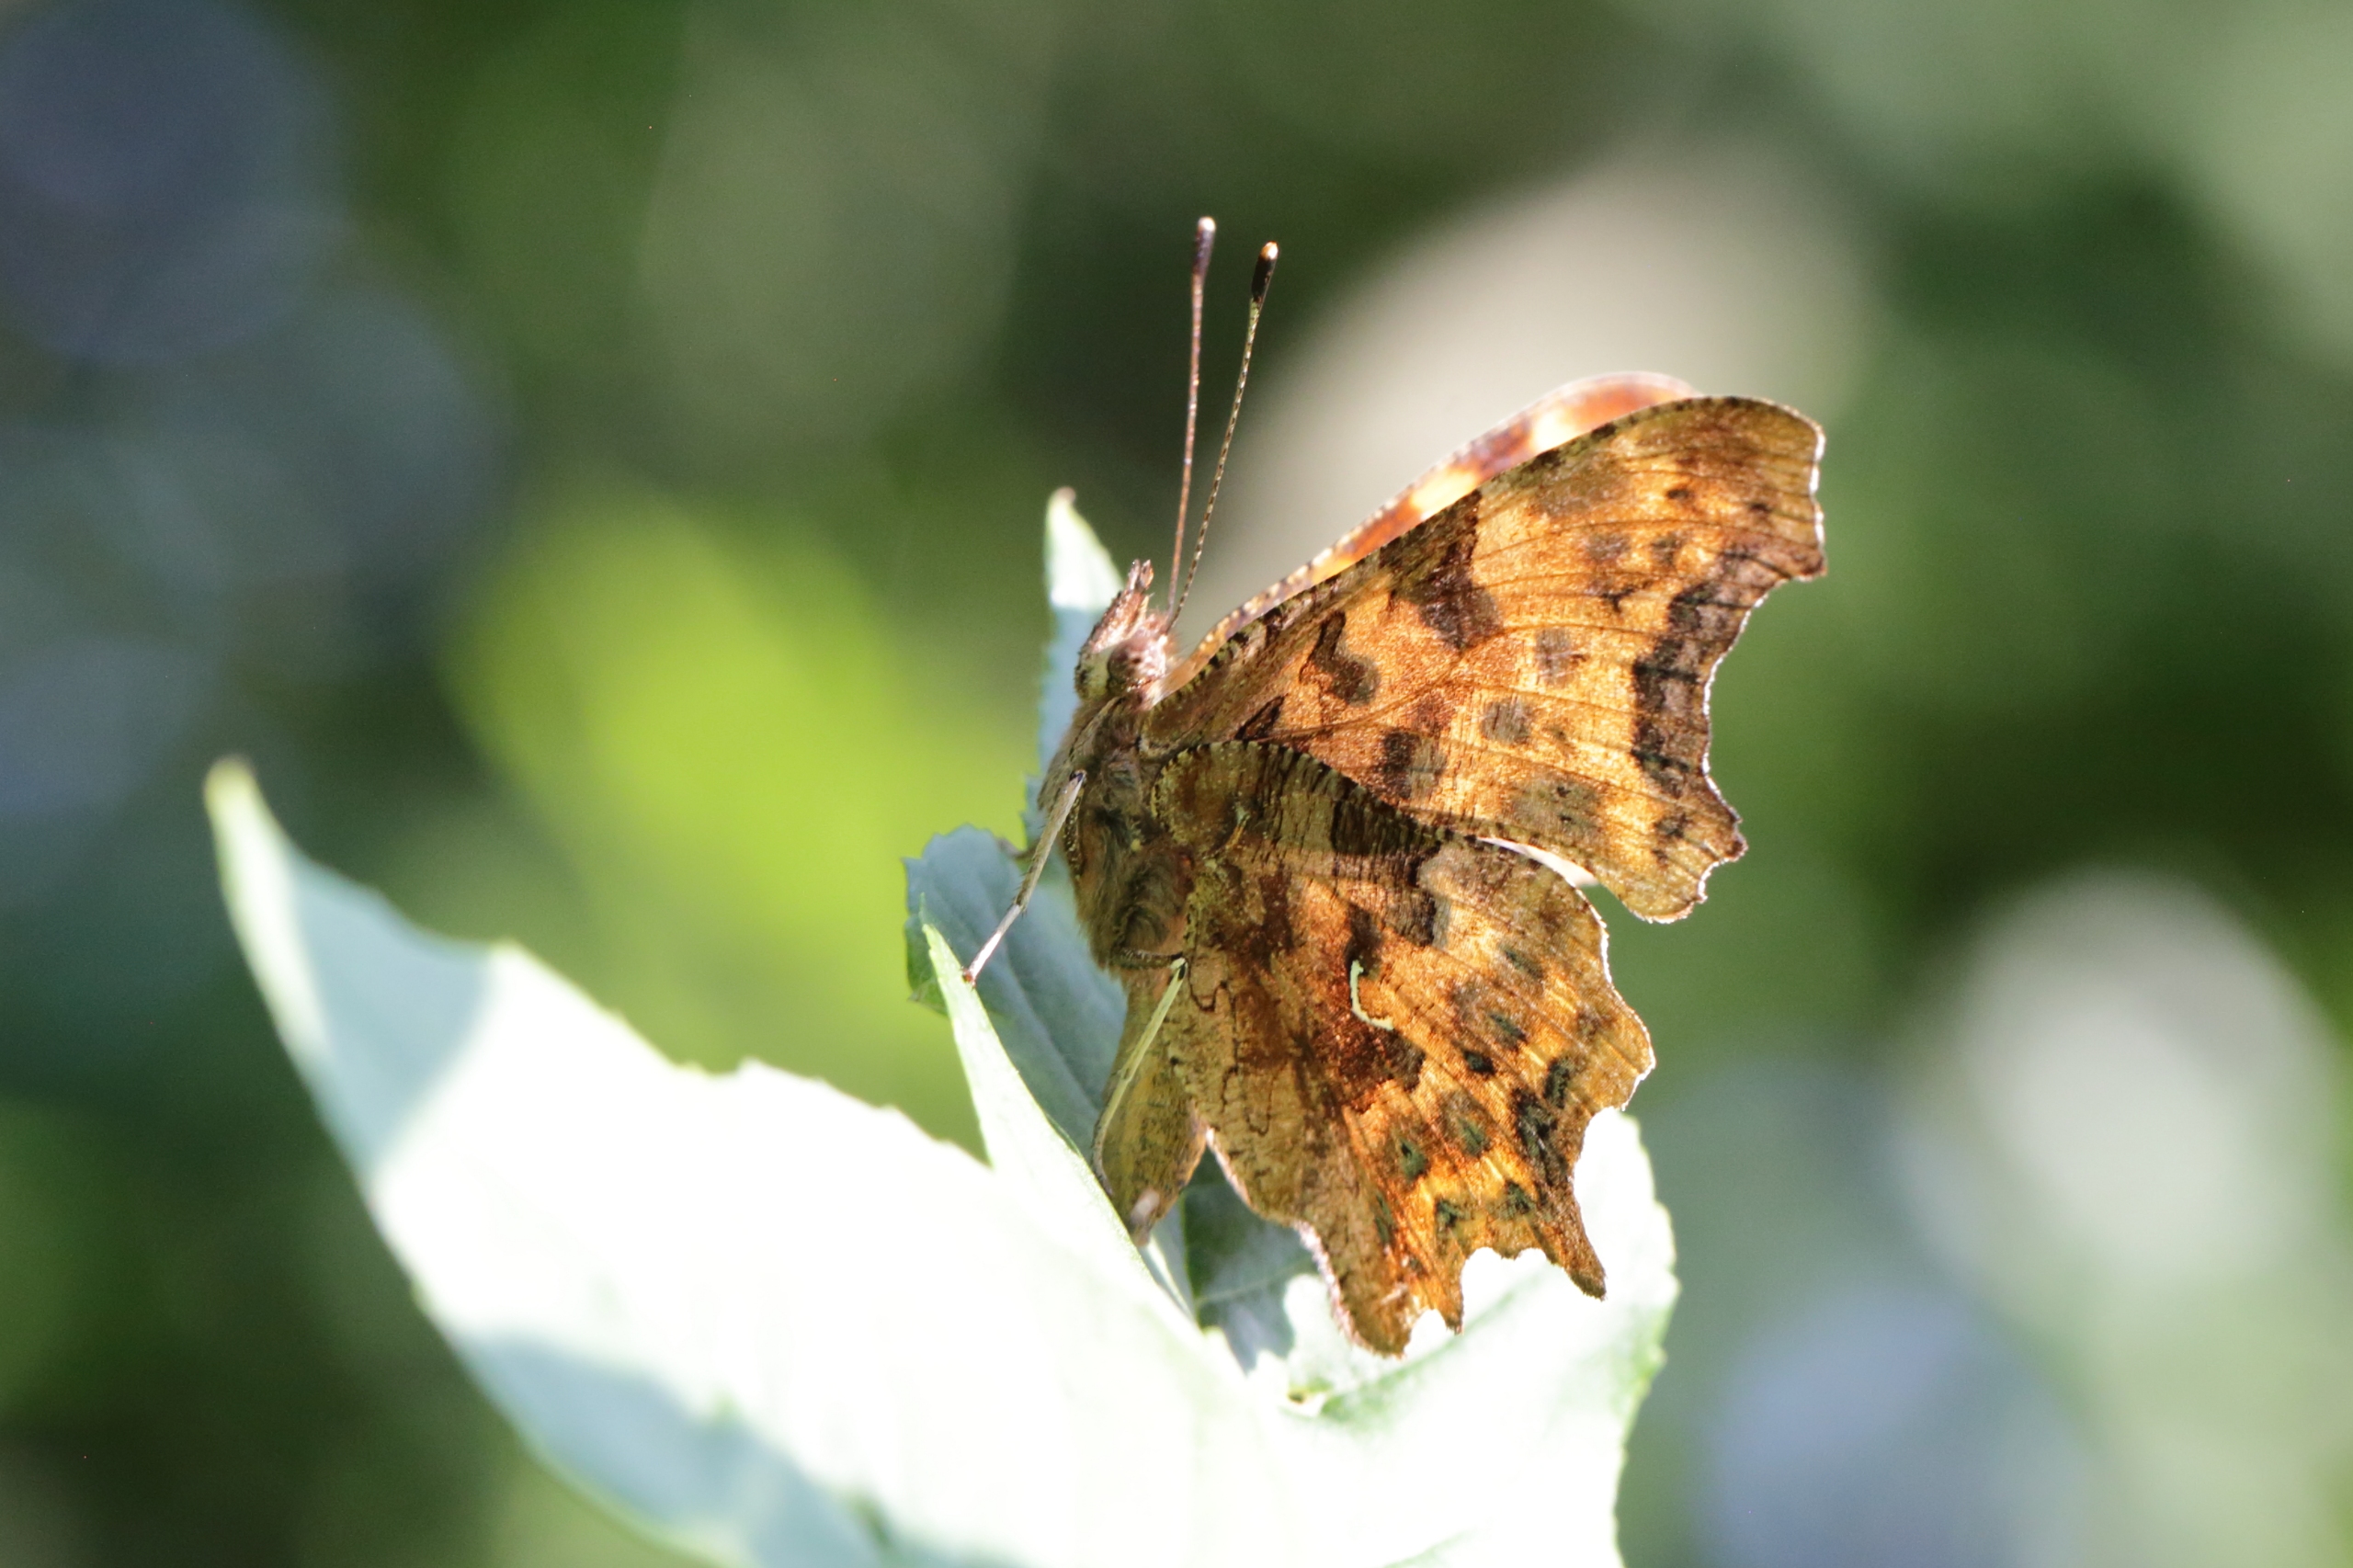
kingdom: Animalia
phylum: Arthropoda
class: Insecta
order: Lepidoptera
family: Nymphalidae
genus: Polygonia
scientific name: Polygonia c-album
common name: Det hvide C
